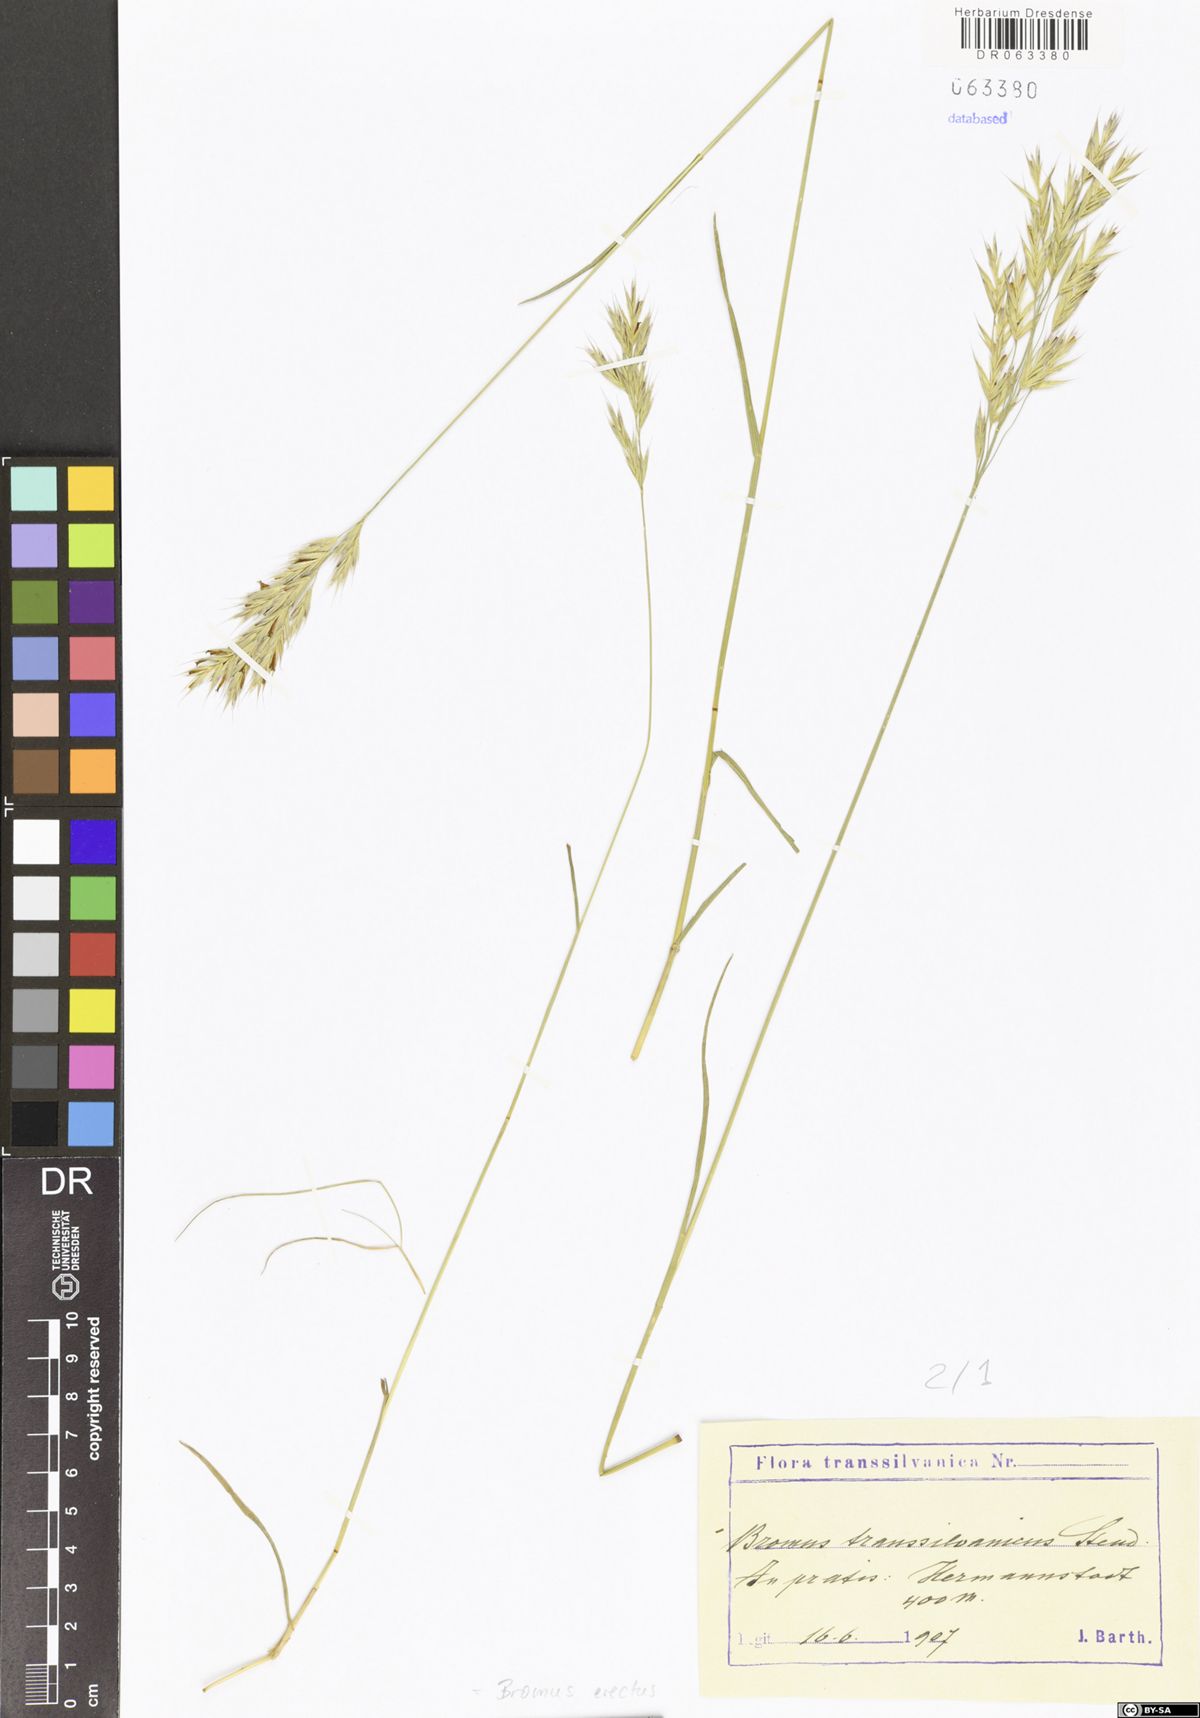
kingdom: Plantae
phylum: Tracheophyta
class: Liliopsida
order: Poales
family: Poaceae
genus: Bromus
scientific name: Bromus erectus
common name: Erect brome
